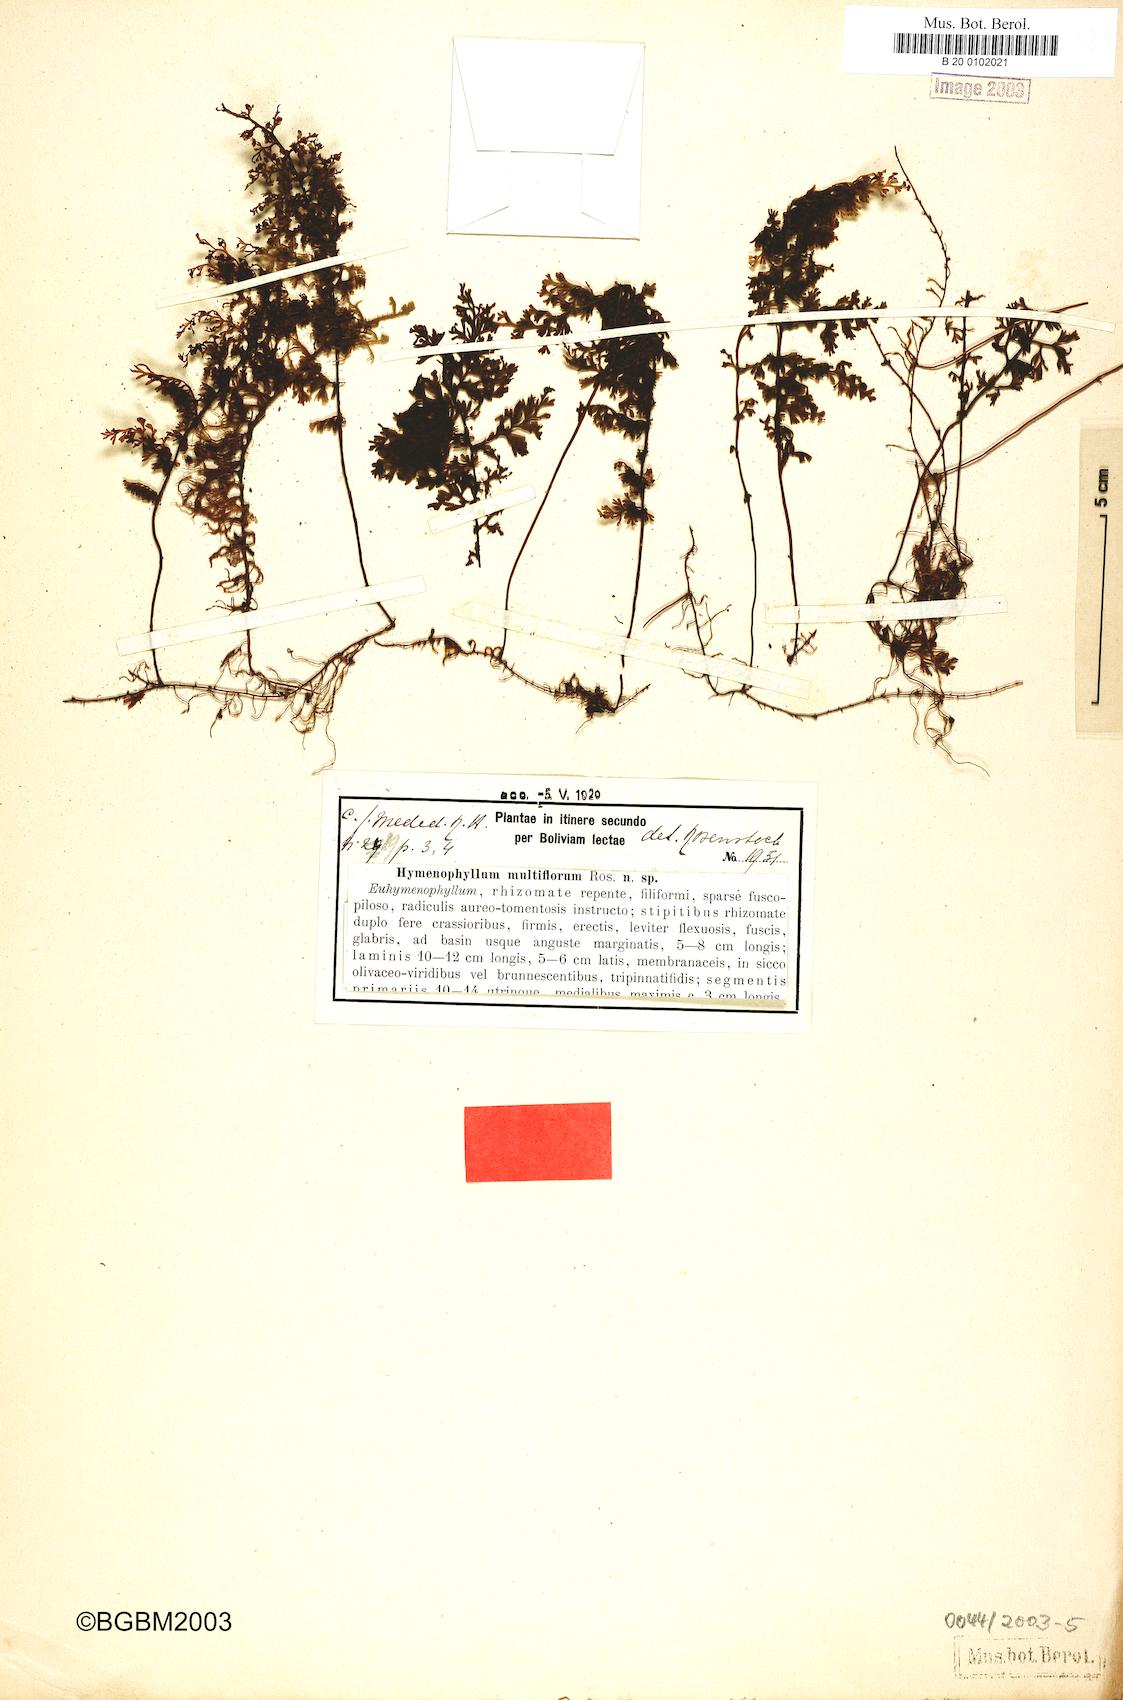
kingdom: Plantae
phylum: Tracheophyta
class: Polypodiopsida
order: Hymenophyllales
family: Hymenophyllaceae
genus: Hymenophyllum
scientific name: Hymenophyllum axillare
